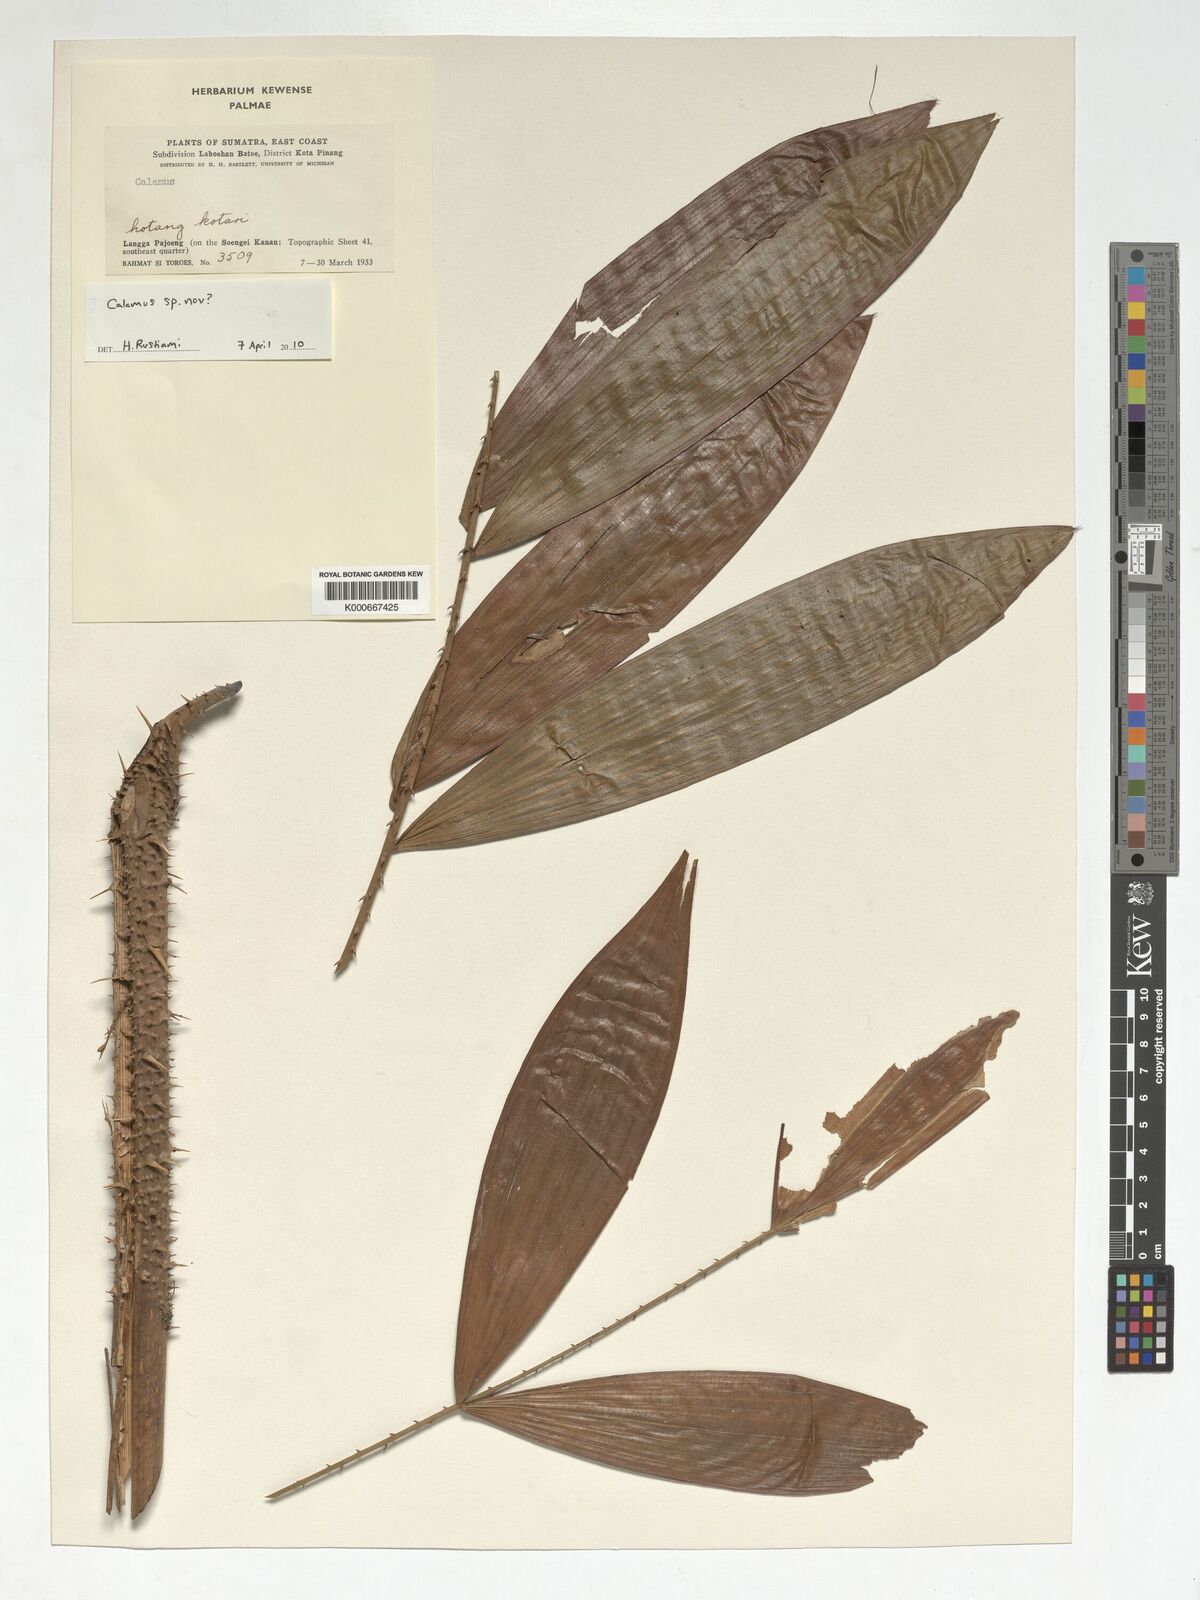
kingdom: Plantae
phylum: Tracheophyta
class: Liliopsida
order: Arecales
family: Arecaceae
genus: Calamus
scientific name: Calamus
